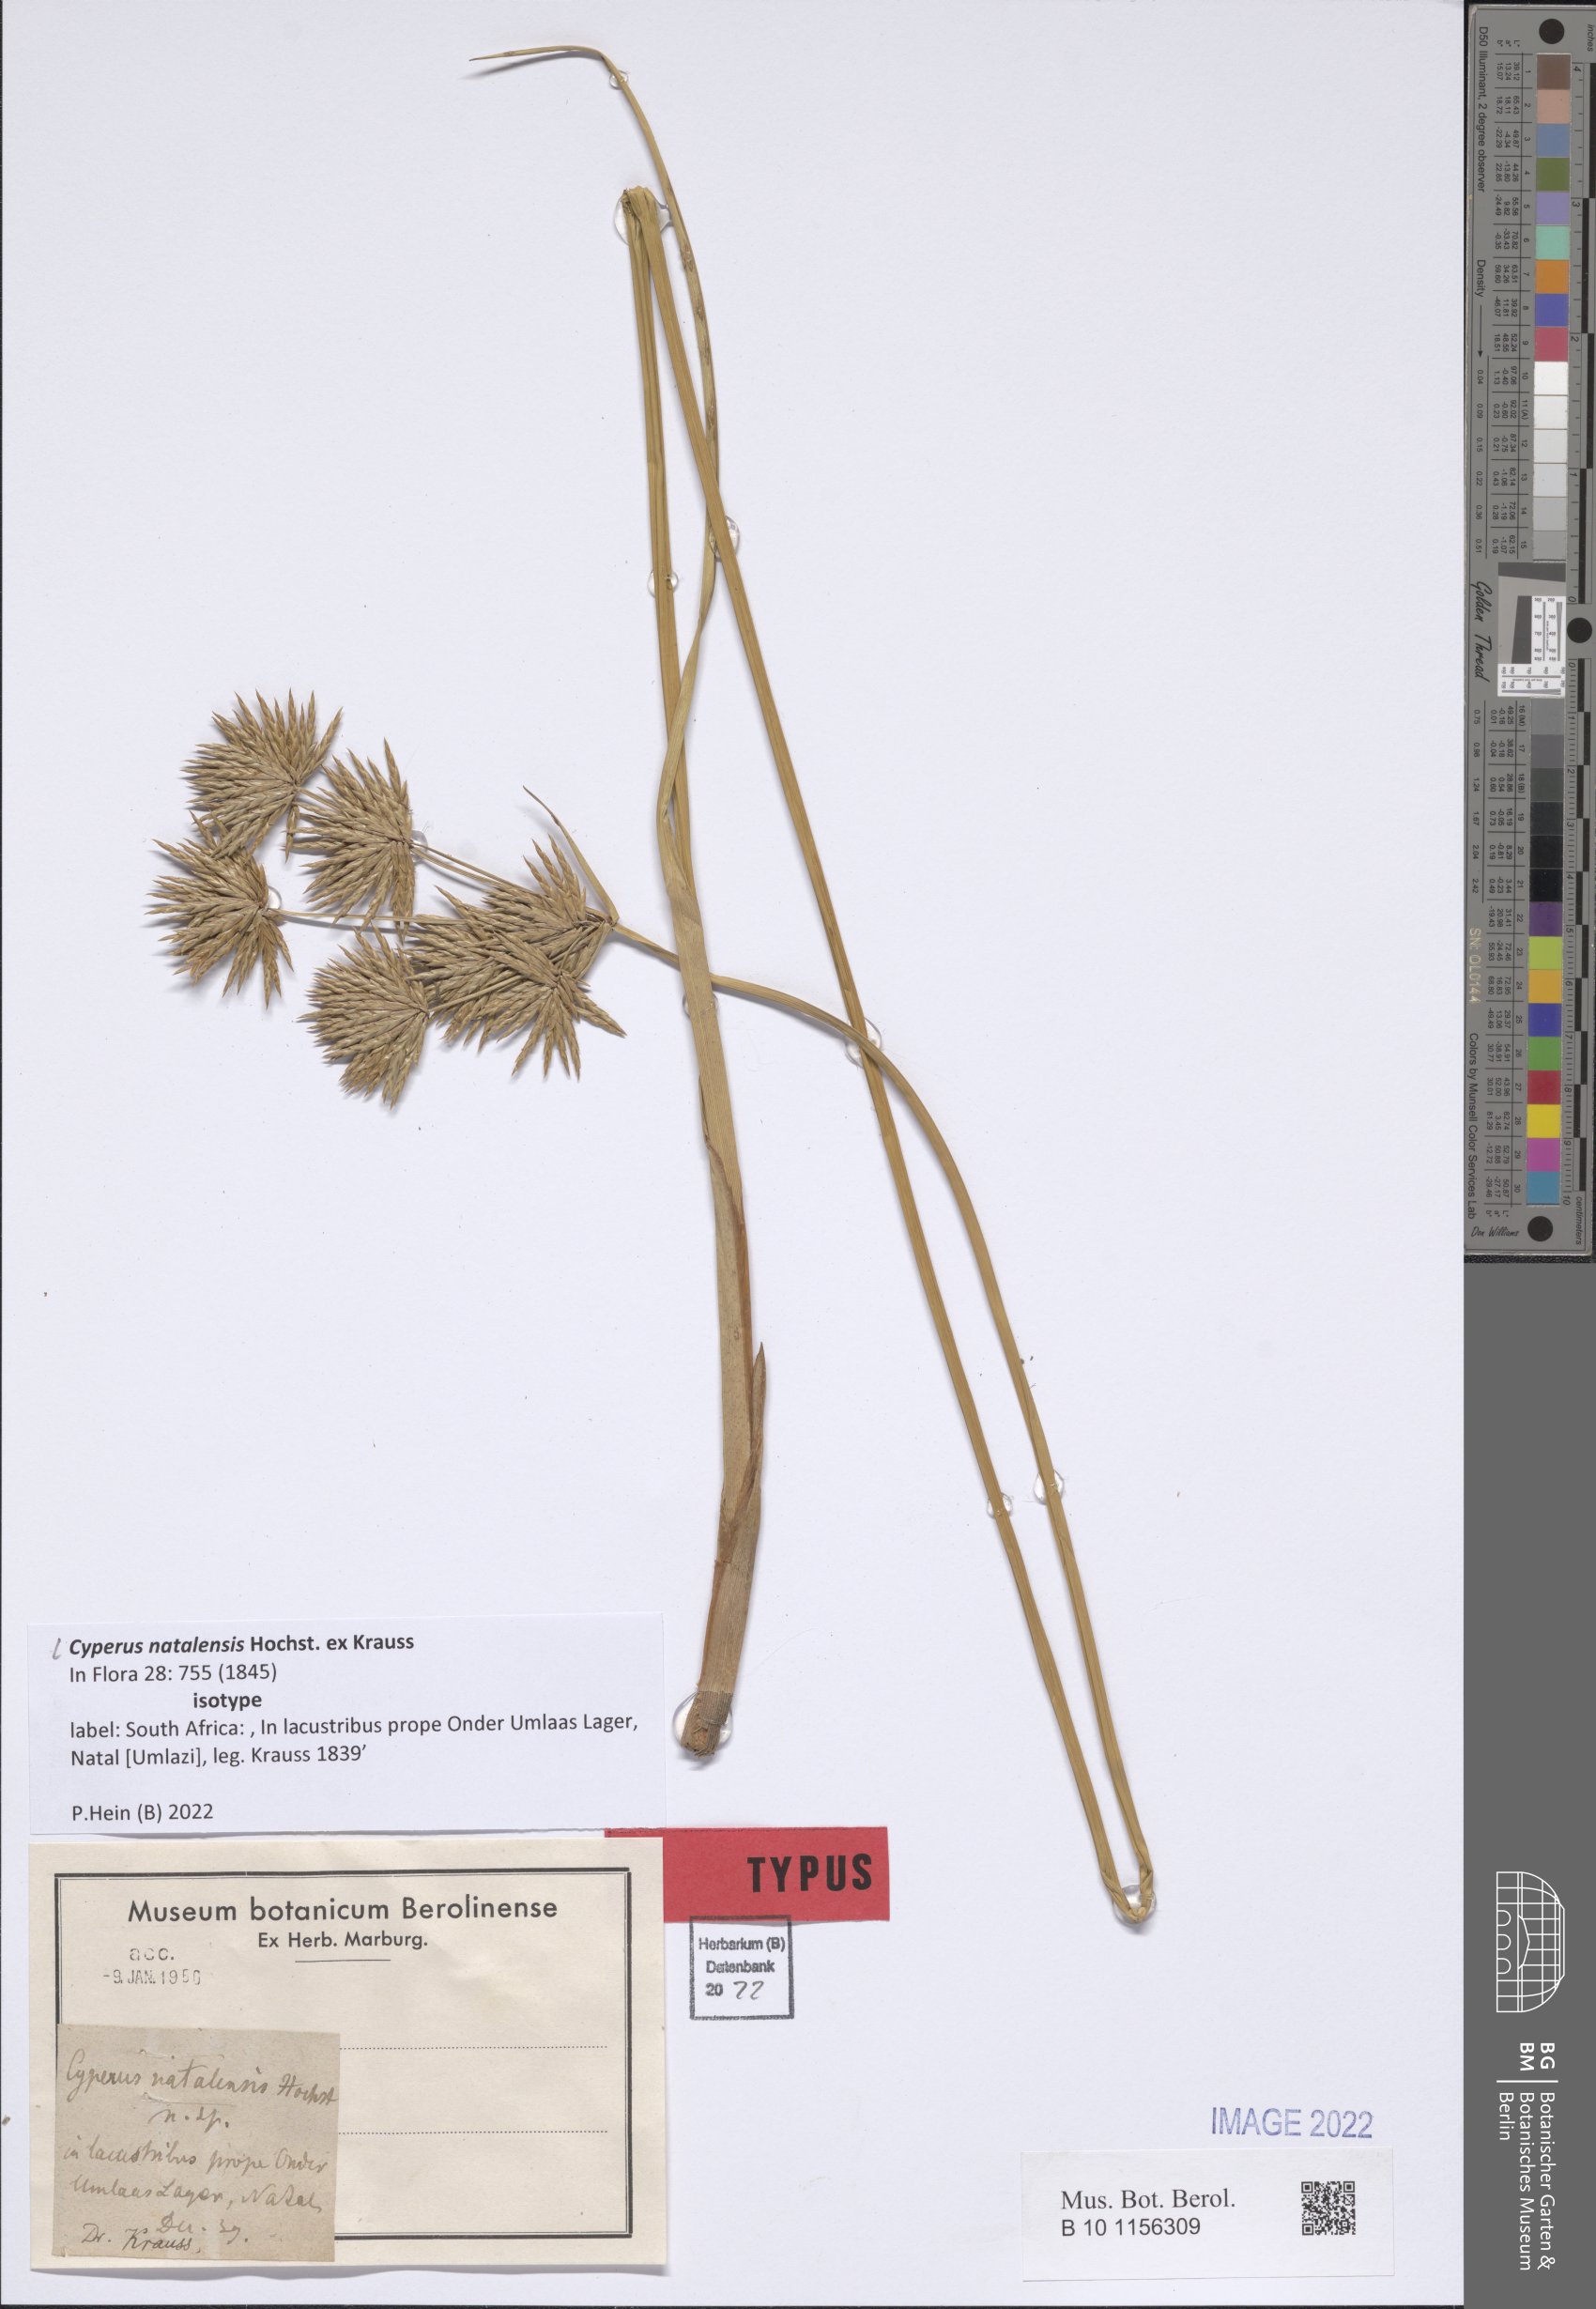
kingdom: Plantae
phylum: Tracheophyta
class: Liliopsida
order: Poales
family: Cyperaceae
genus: Cyperus
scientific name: Cyperus natalensis
